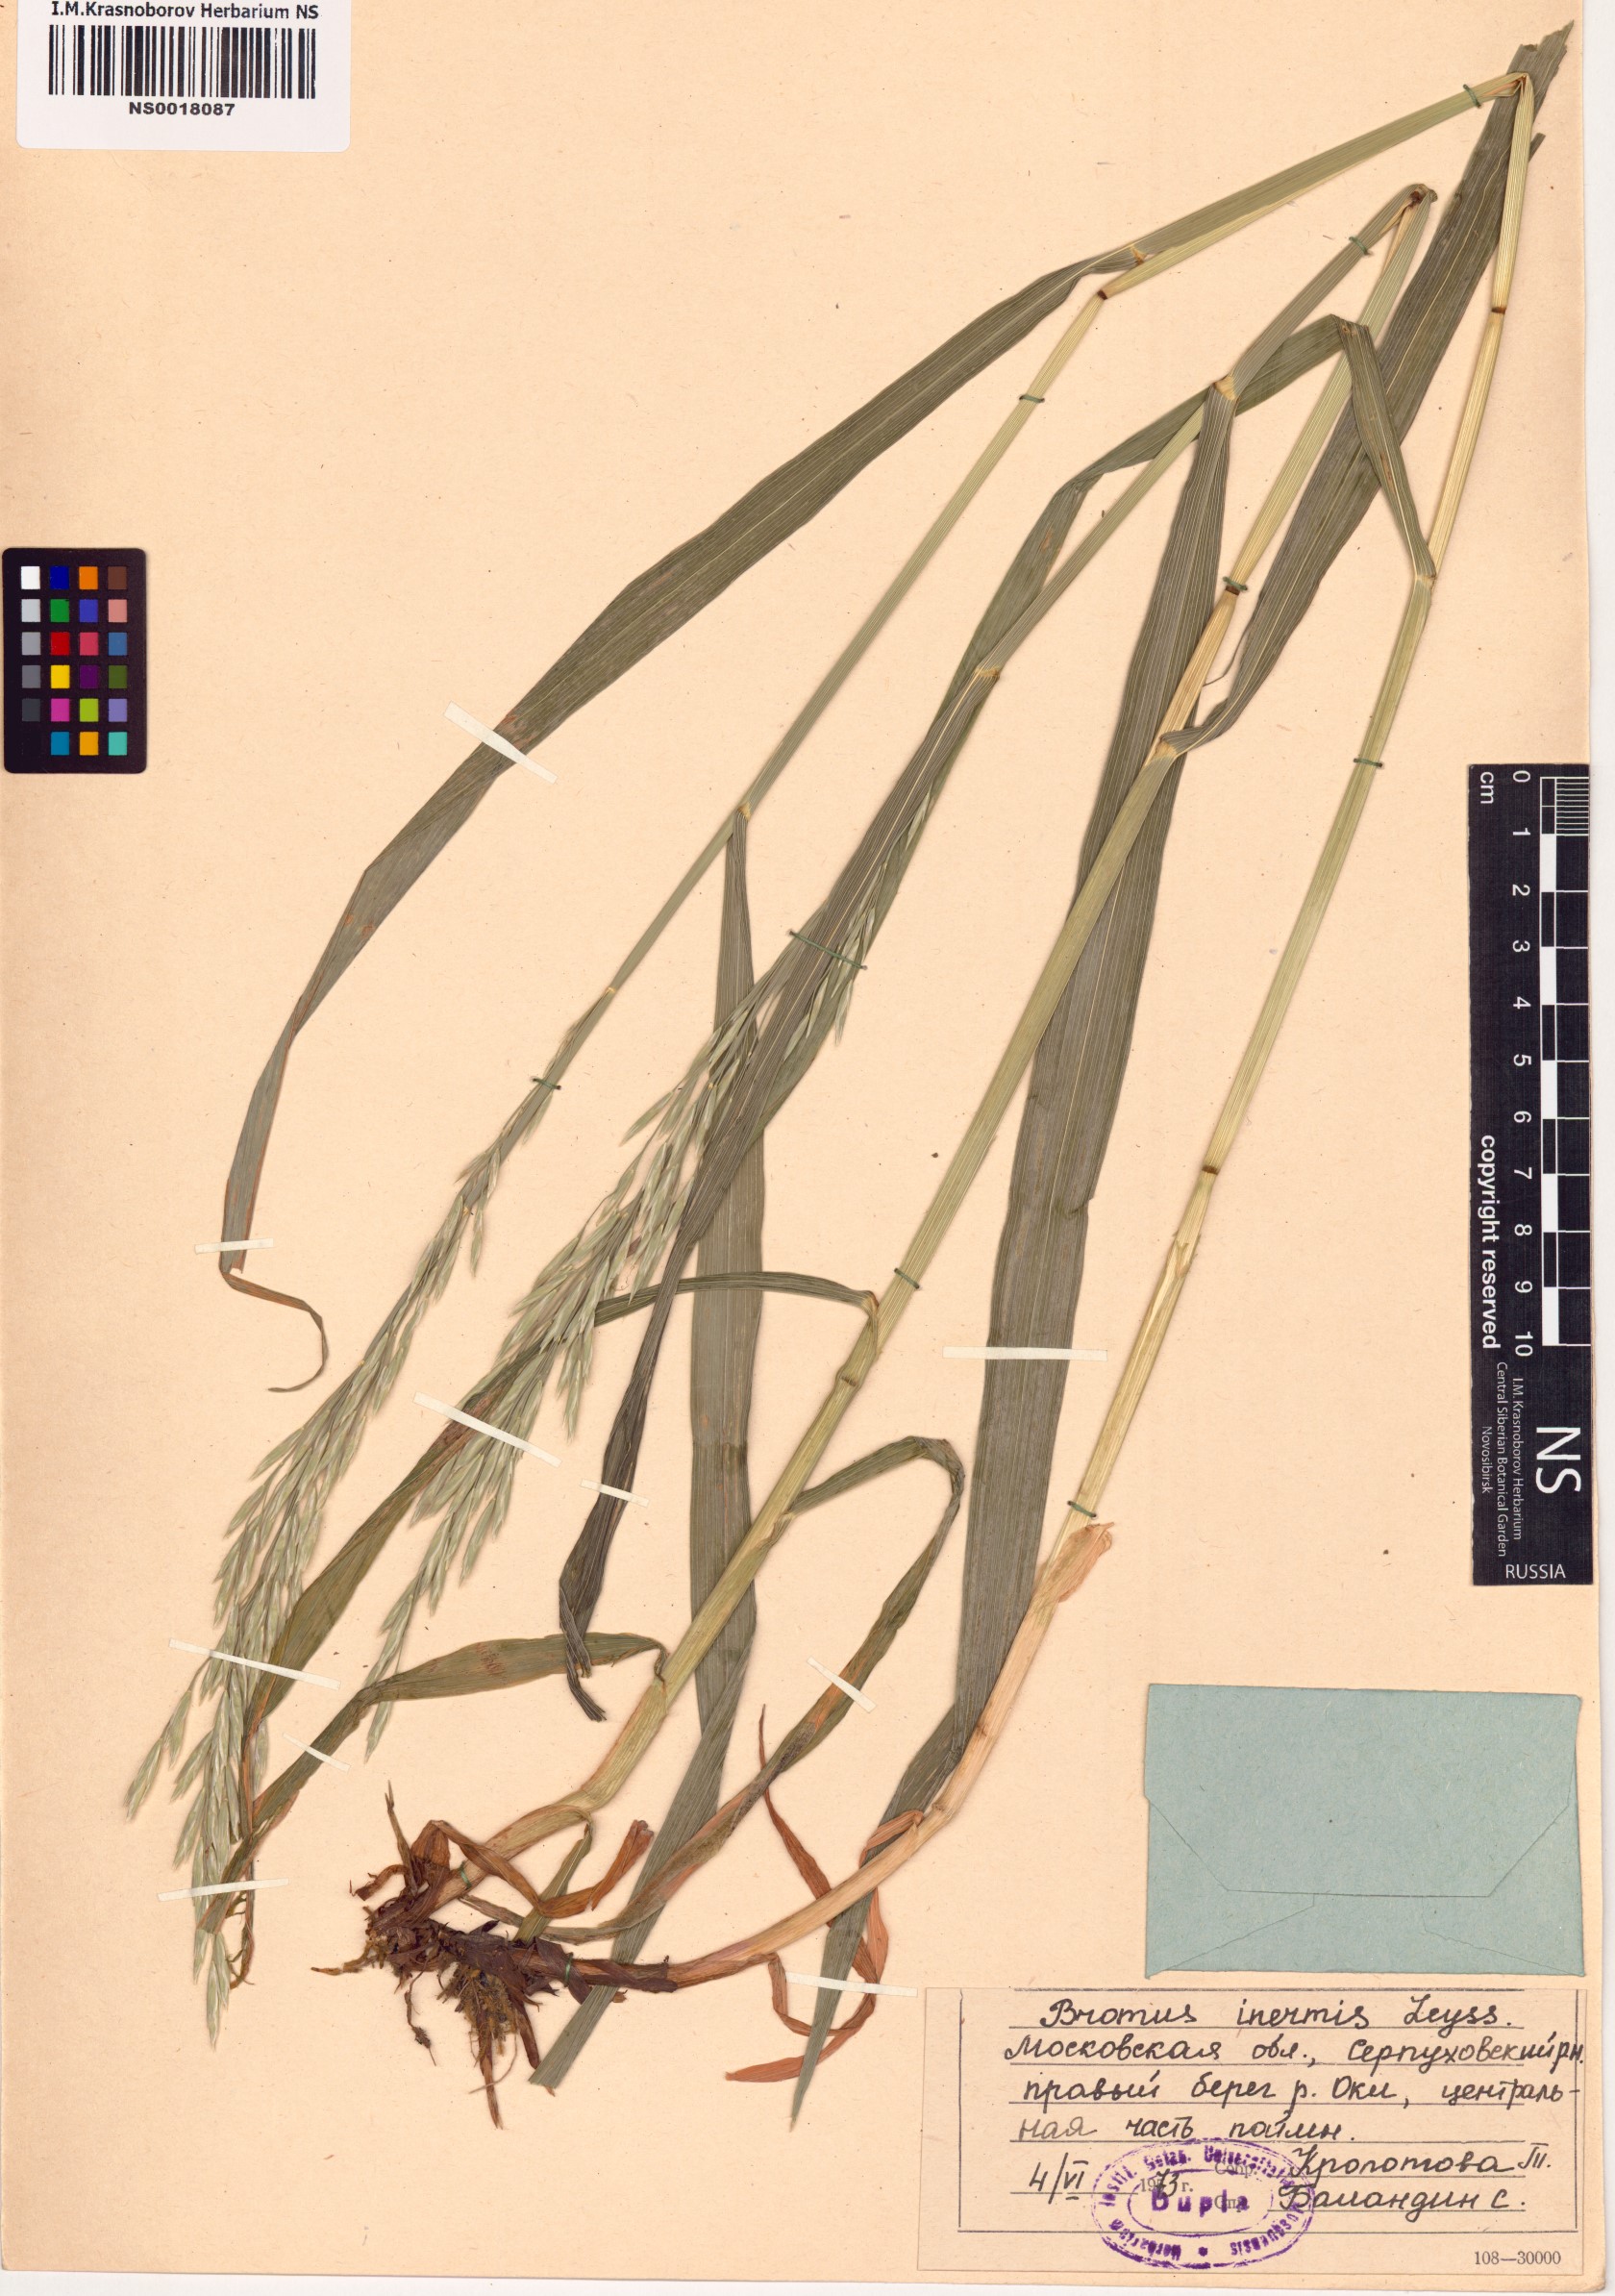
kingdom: Plantae
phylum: Tracheophyta
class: Liliopsida
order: Poales
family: Poaceae
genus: Bromus
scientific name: Bromus inermis
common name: Smooth brome
